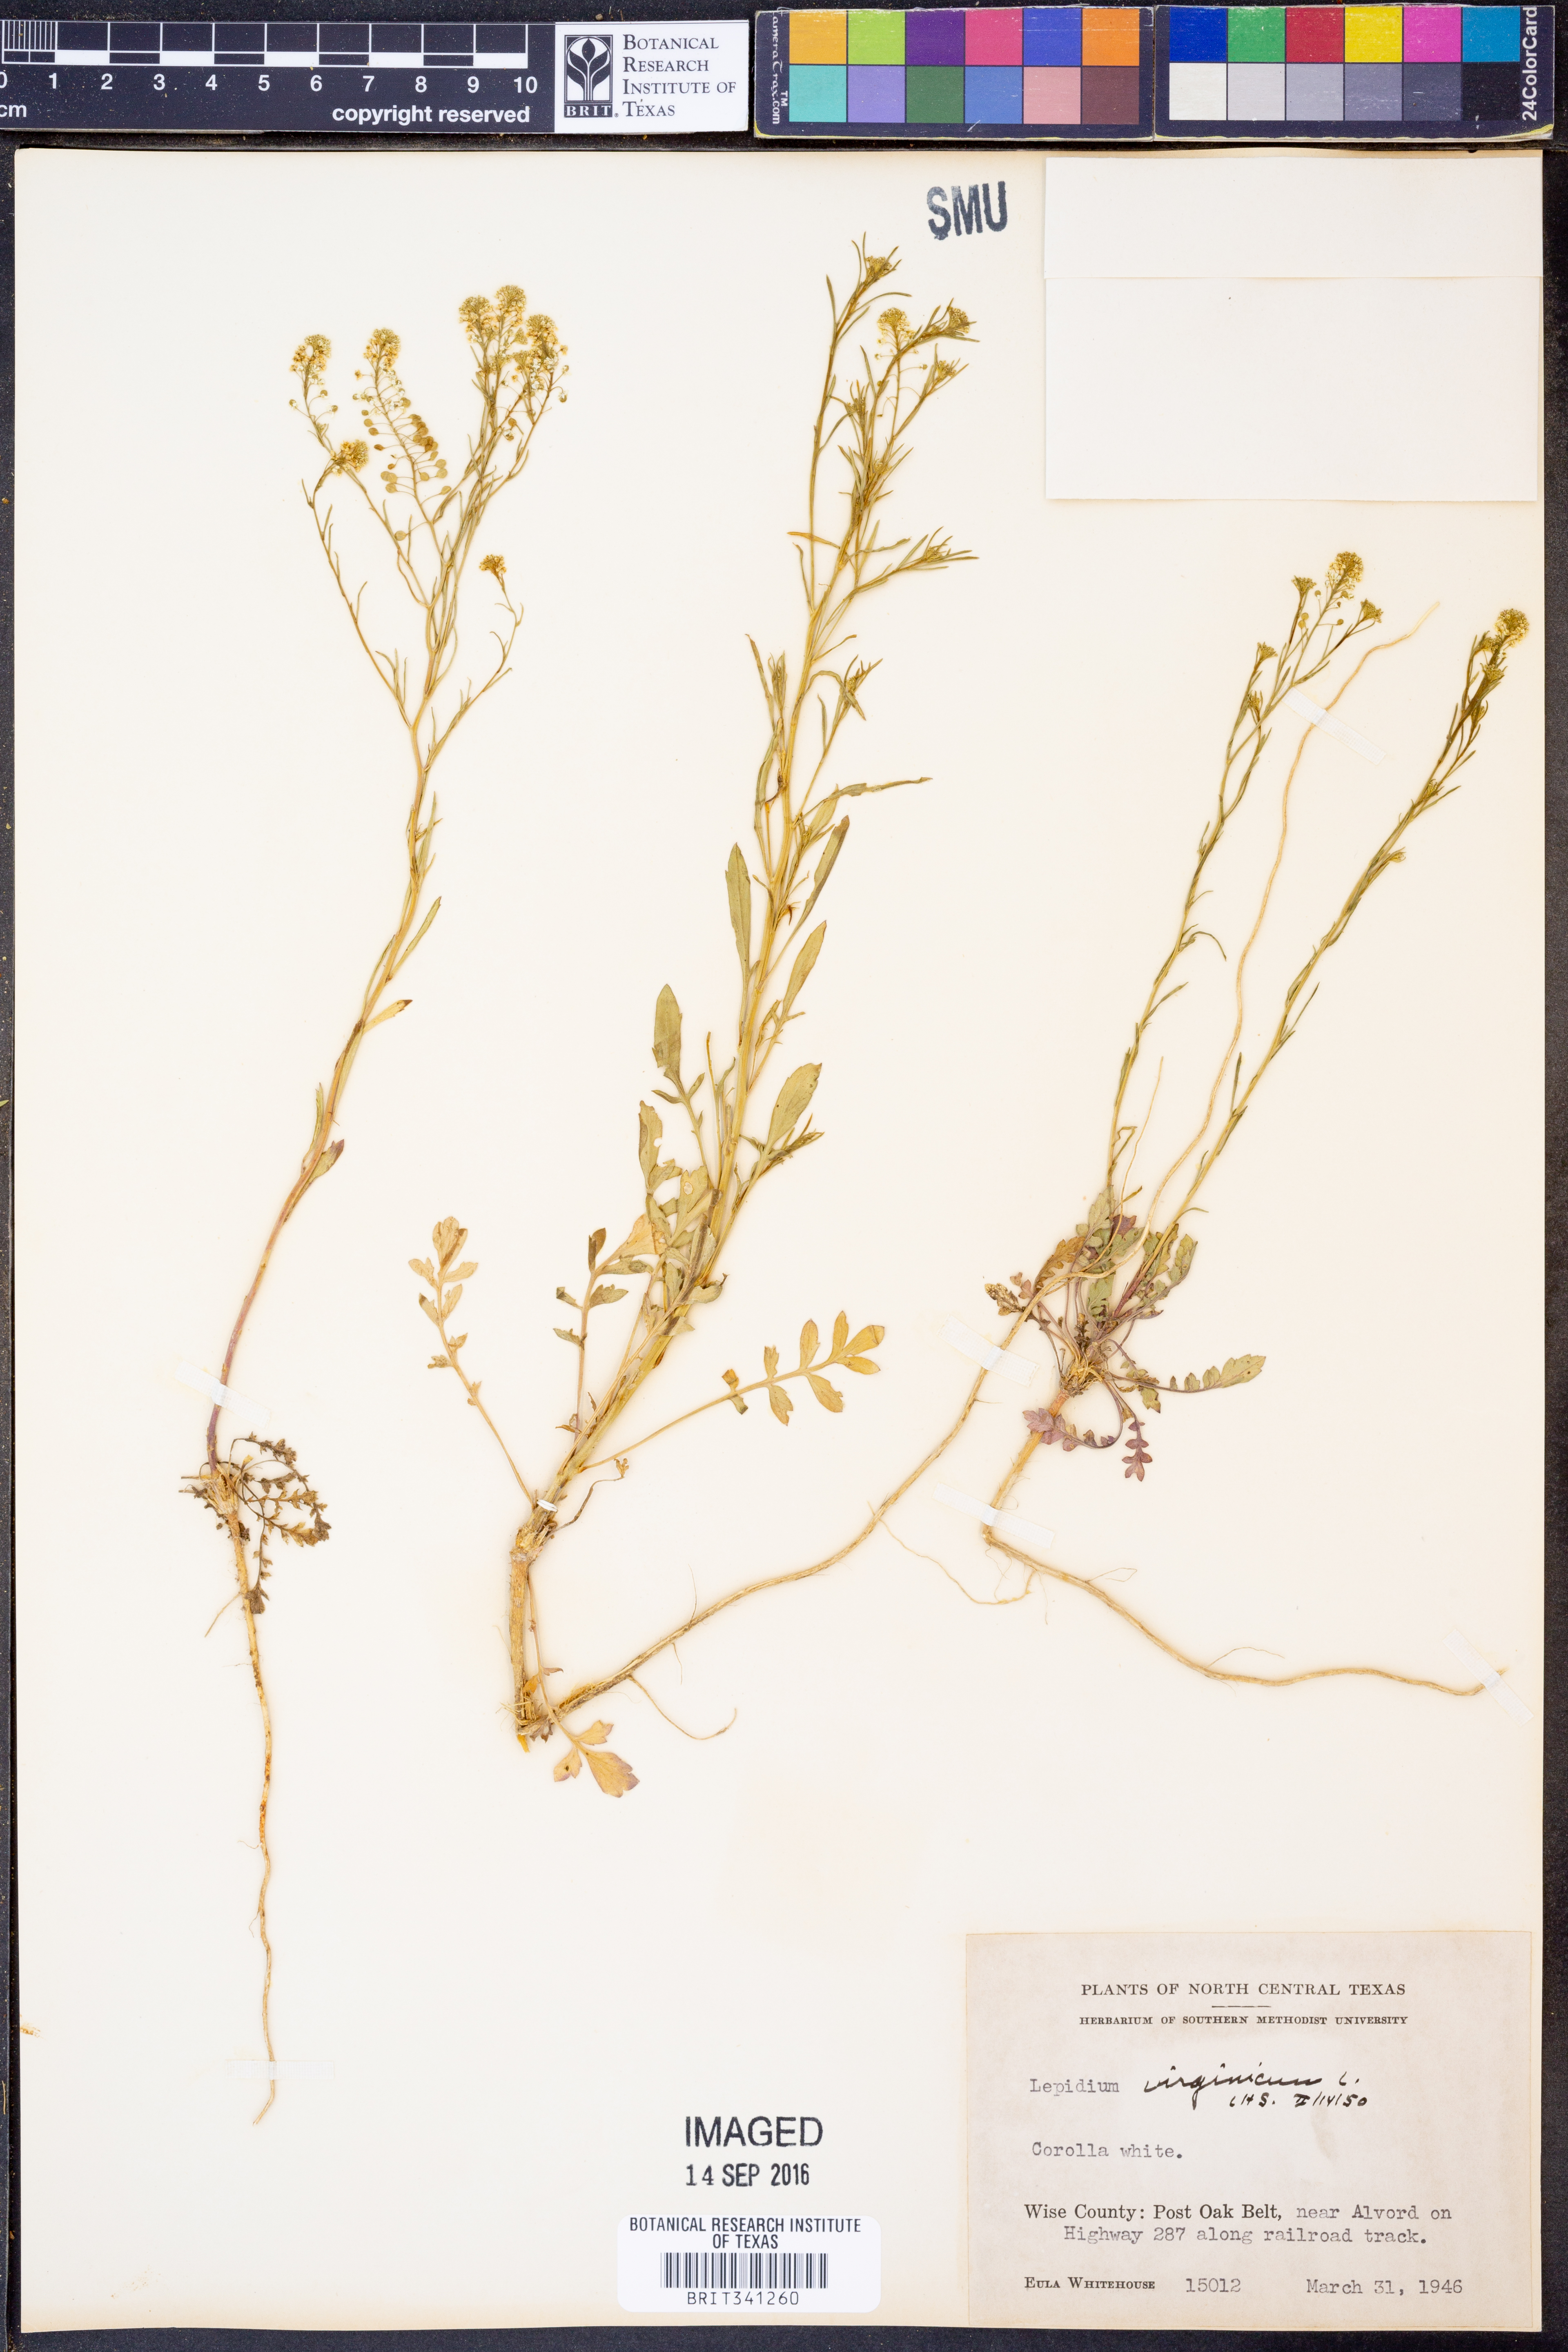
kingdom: Plantae
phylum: Tracheophyta
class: Magnoliopsida
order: Brassicales
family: Brassicaceae
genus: Lepidium
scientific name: Lepidium virginicum
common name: Least pepperwort
